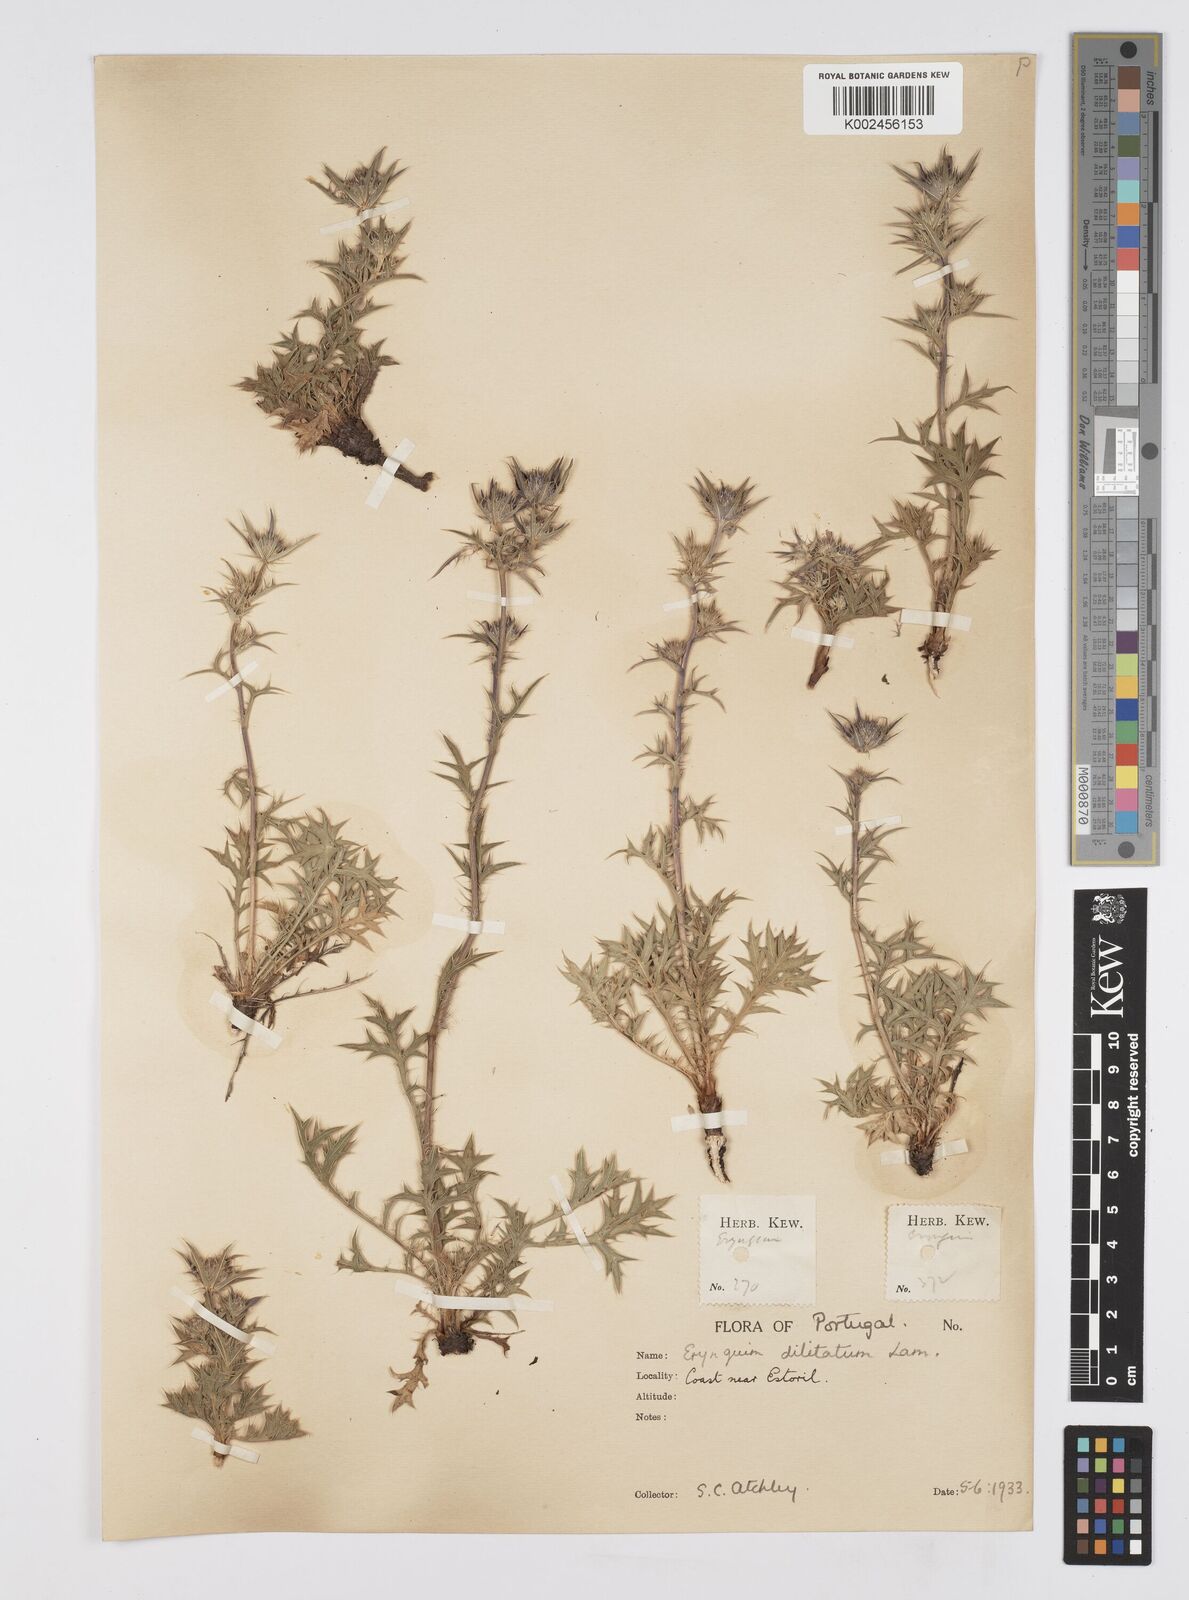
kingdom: Plantae
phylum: Tracheophyta
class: Magnoliopsida
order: Apiales
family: Apiaceae
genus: Eryngium
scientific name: Eryngium dilatatum
